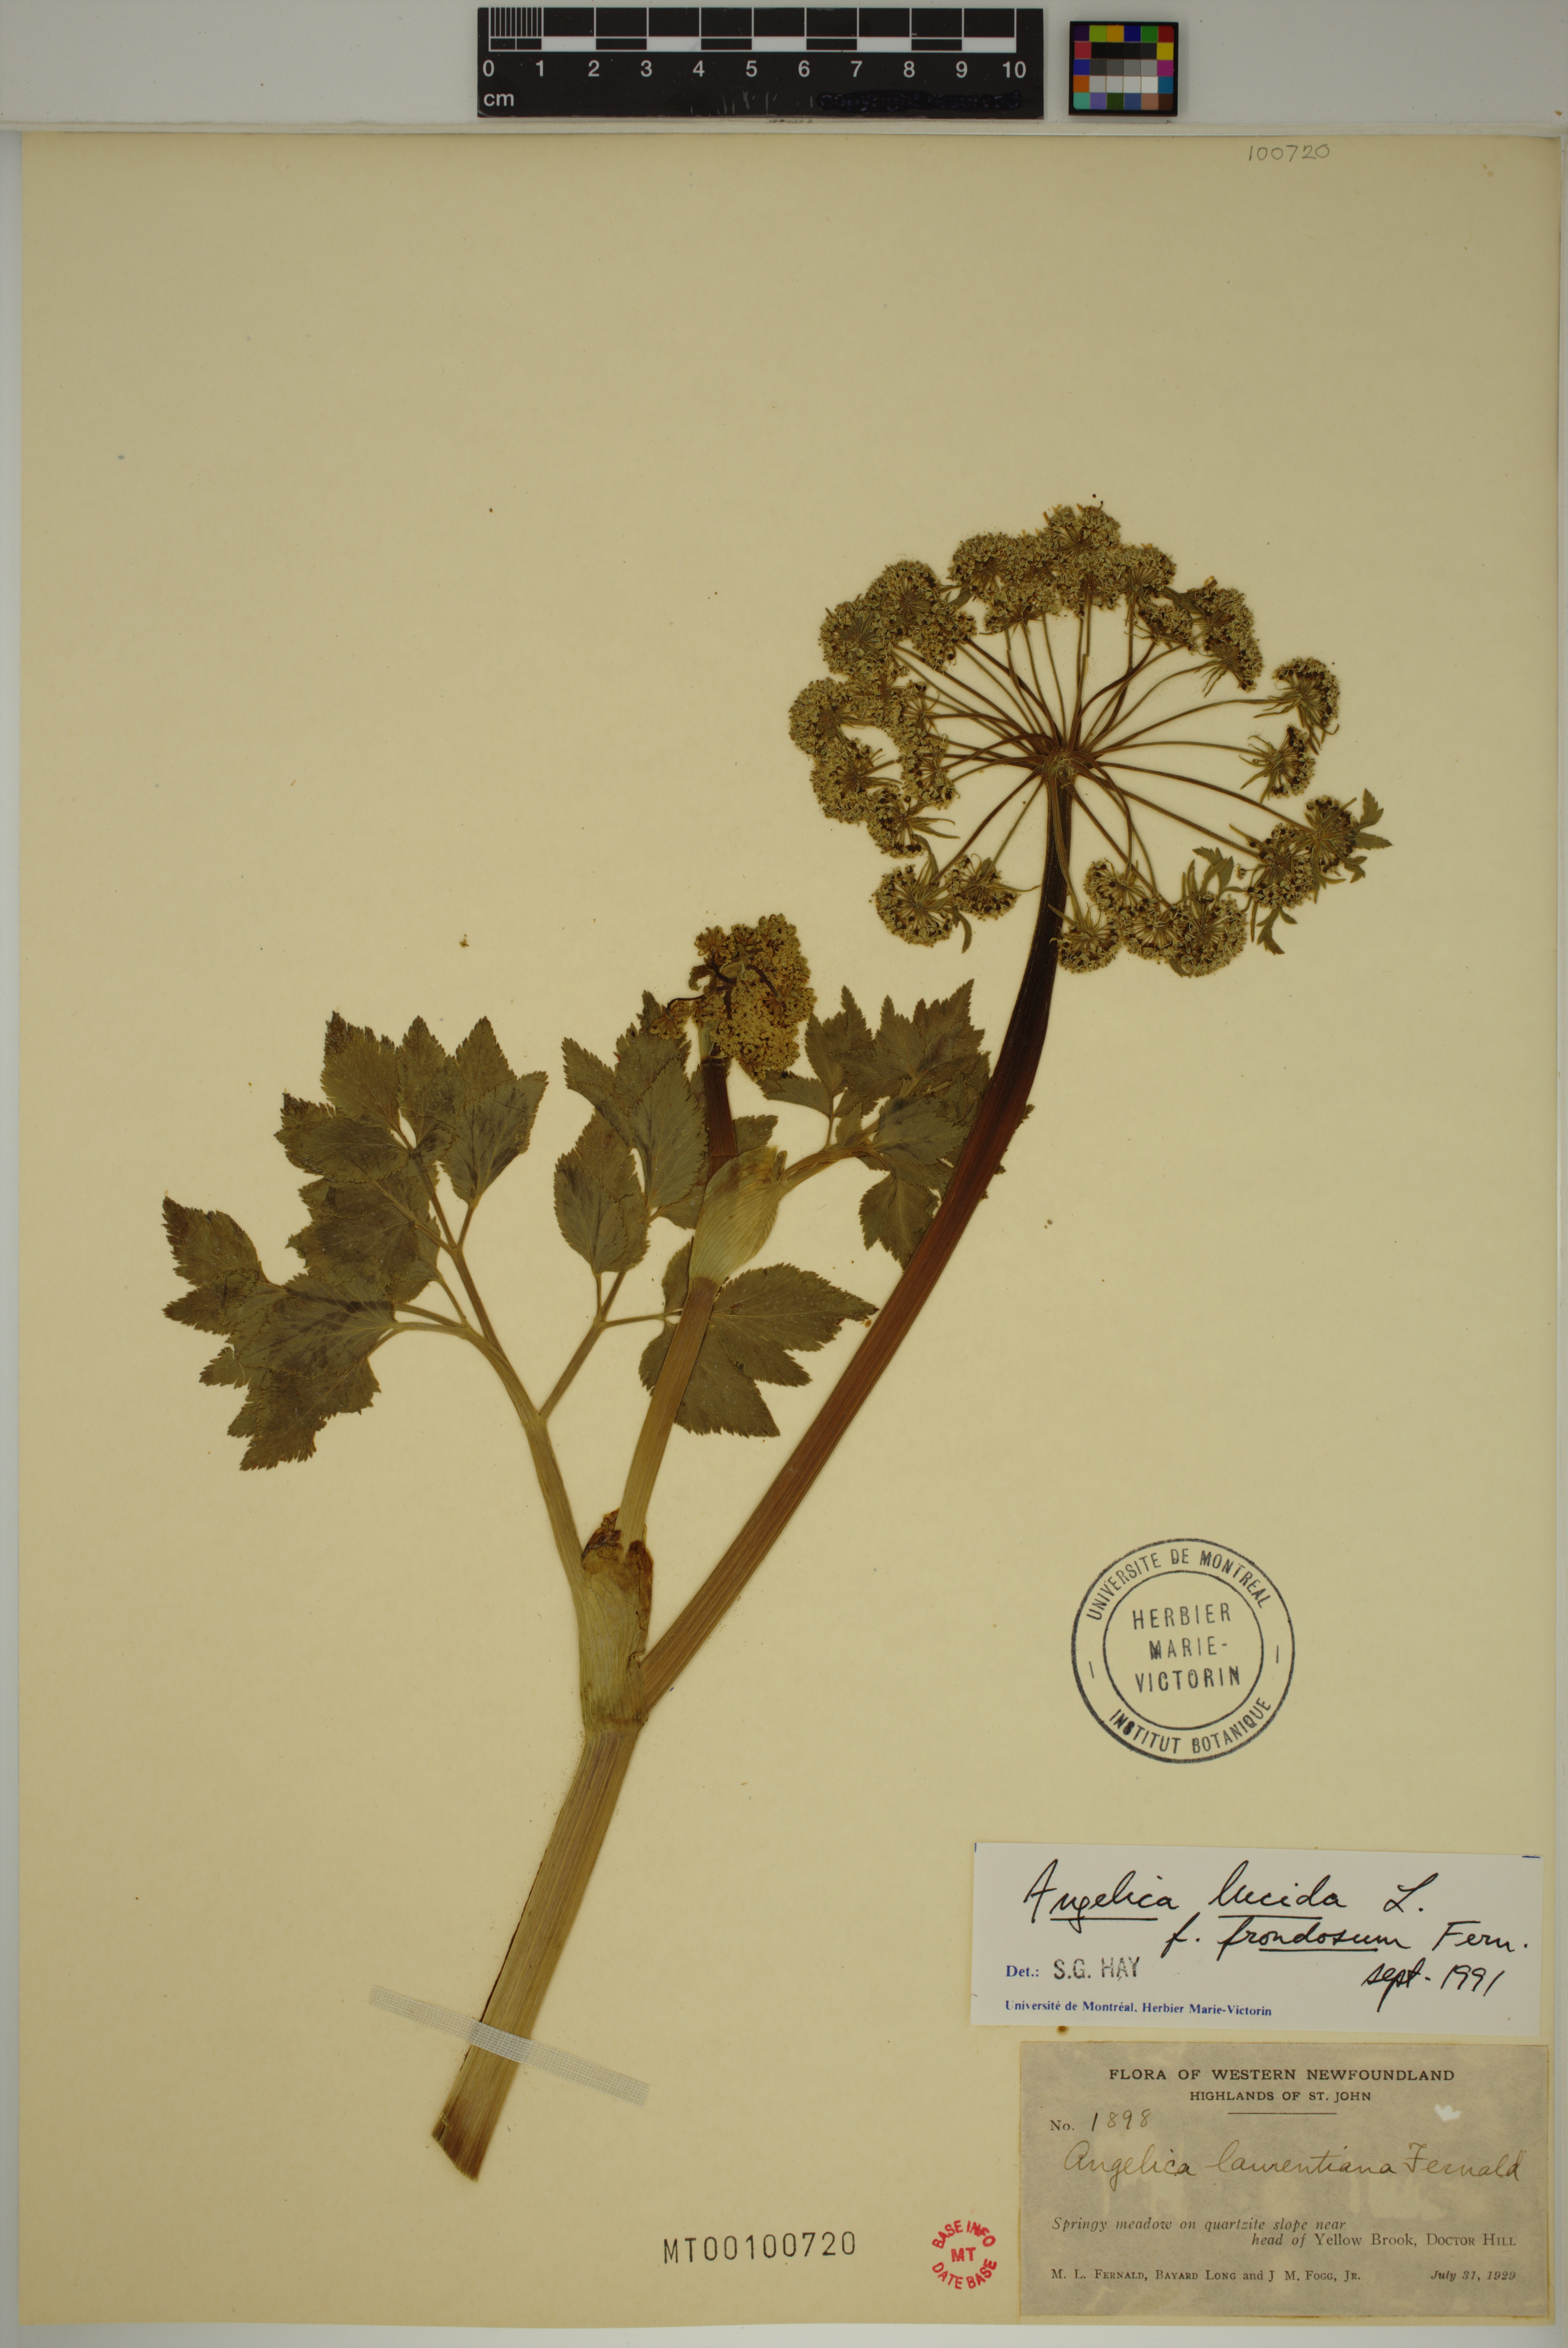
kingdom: Plantae
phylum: Tracheophyta
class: Magnoliopsida
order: Apiales
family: Apiaceae
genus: Angelica
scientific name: Angelica lucida
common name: Seabeach angelica
